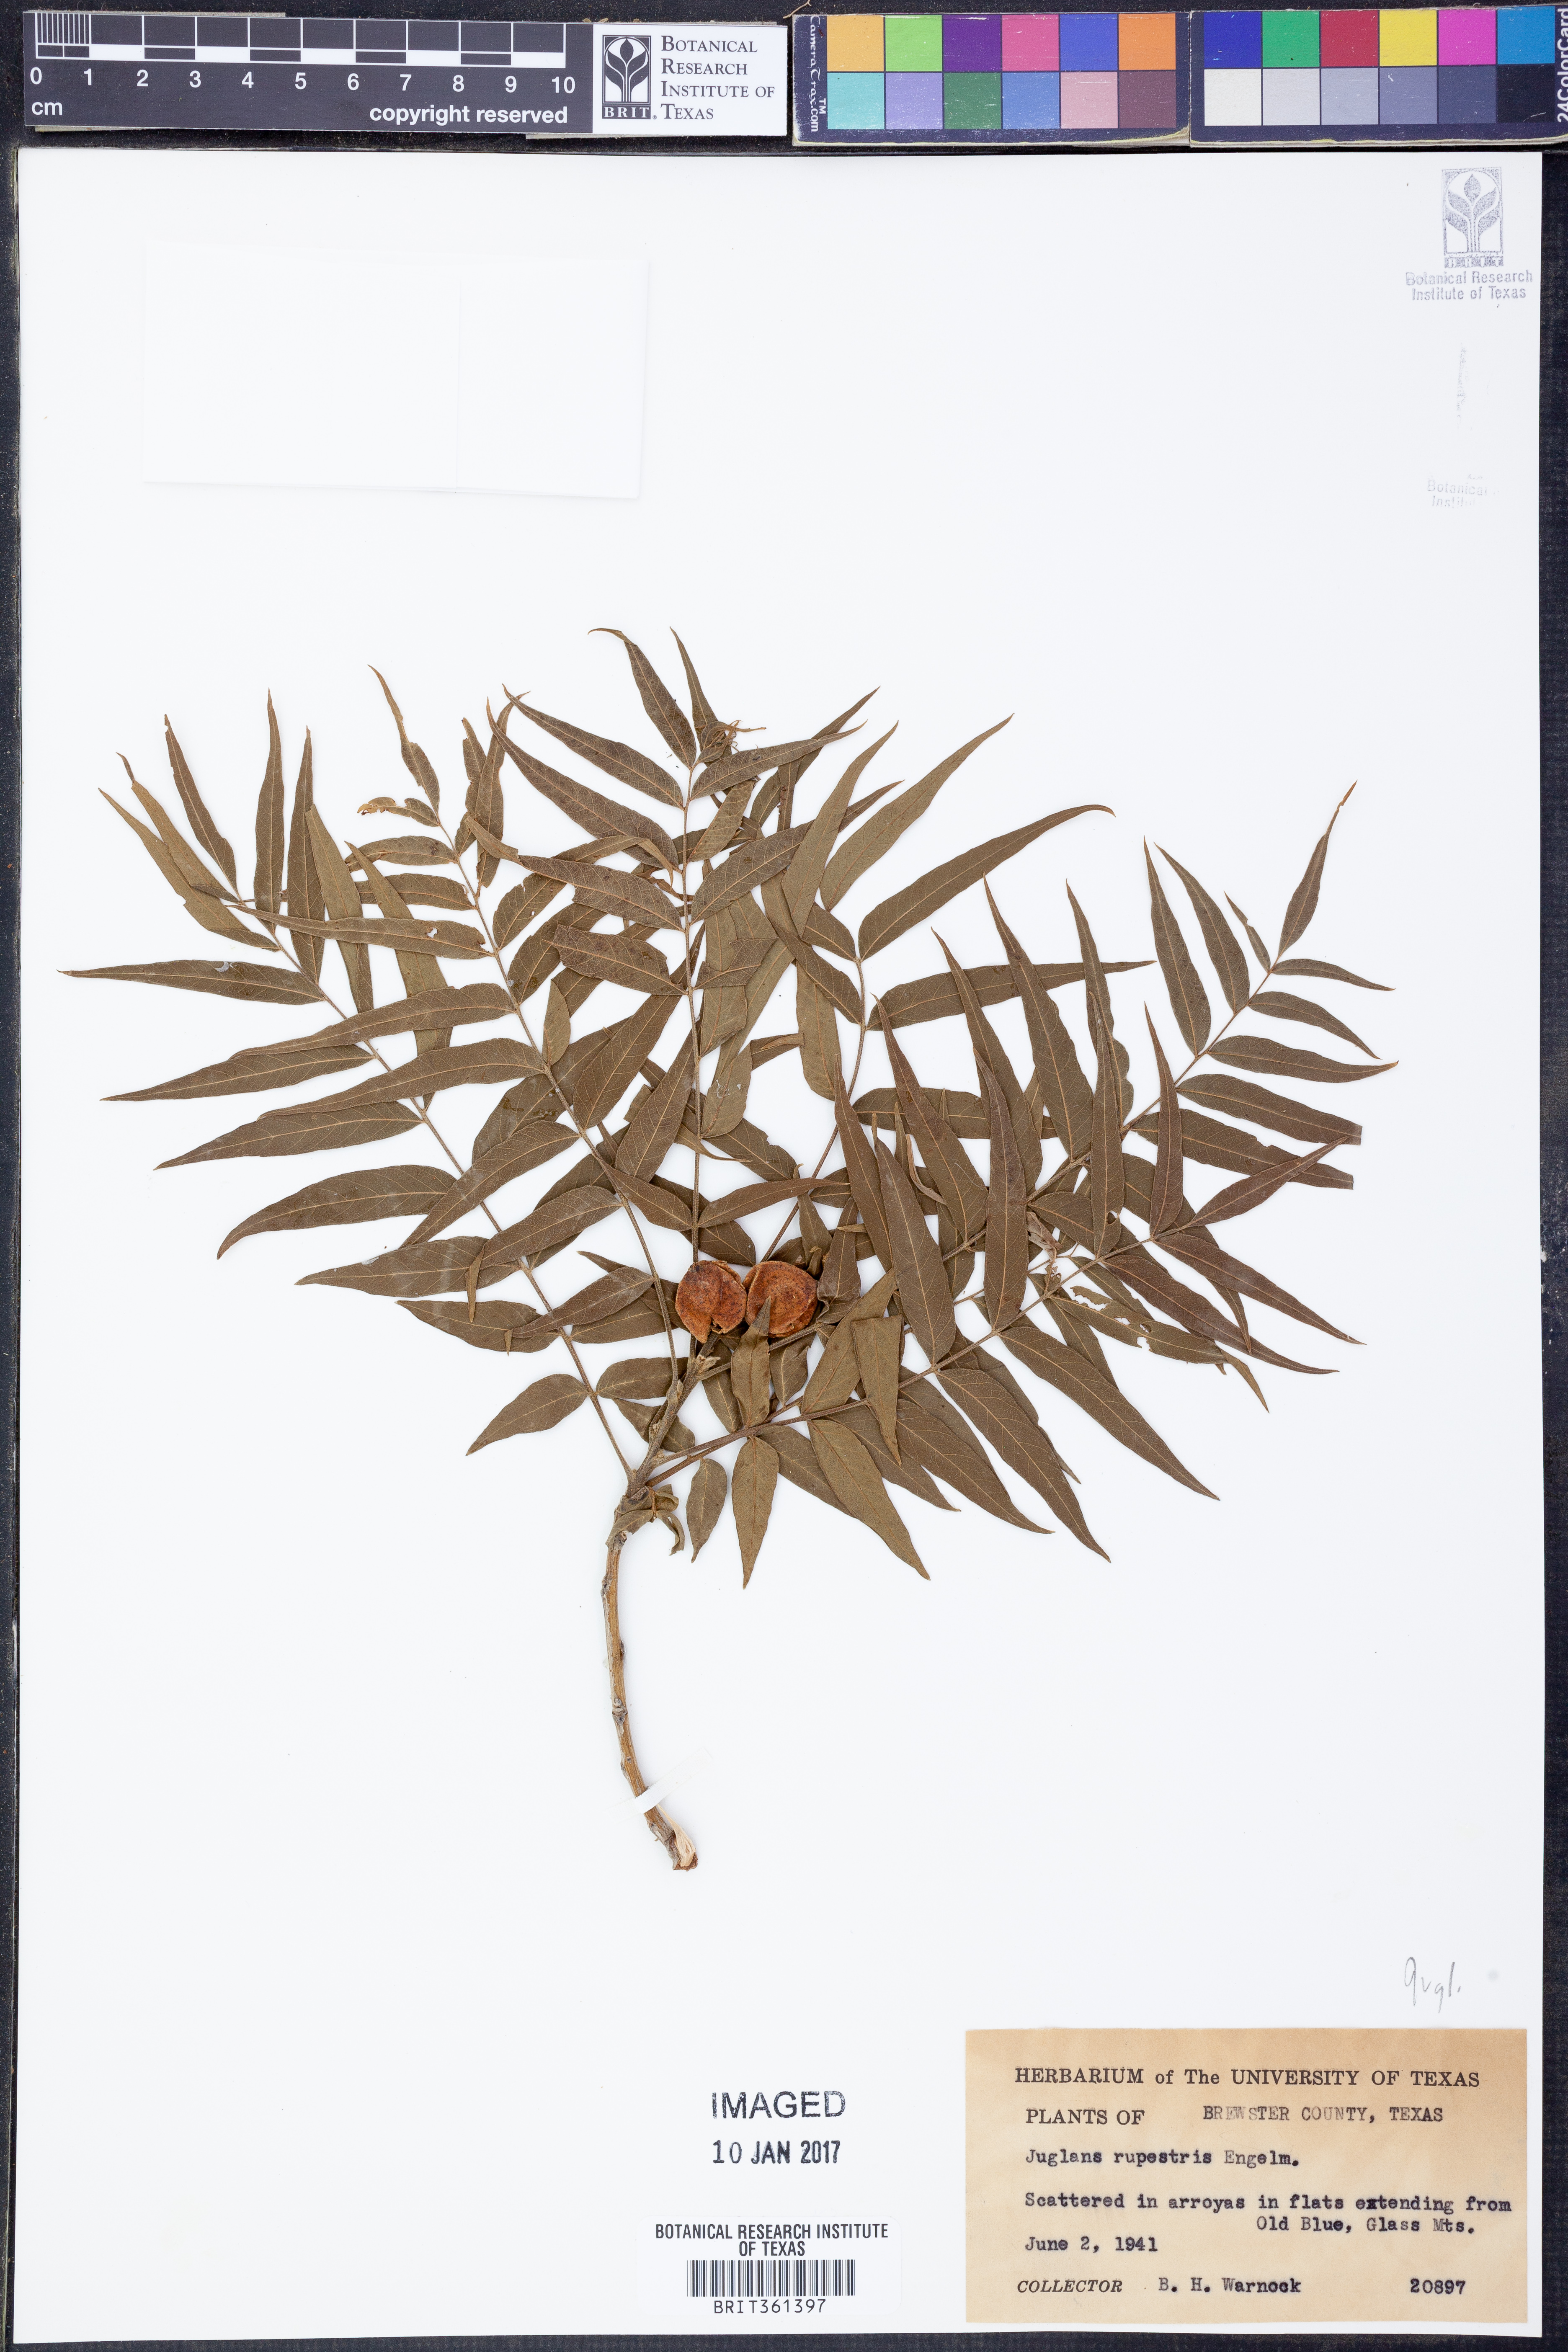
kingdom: Plantae
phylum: Tracheophyta
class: Magnoliopsida
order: Fagales
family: Juglandaceae
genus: Juglans
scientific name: Juglans microcarpa
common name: Texas walnut
